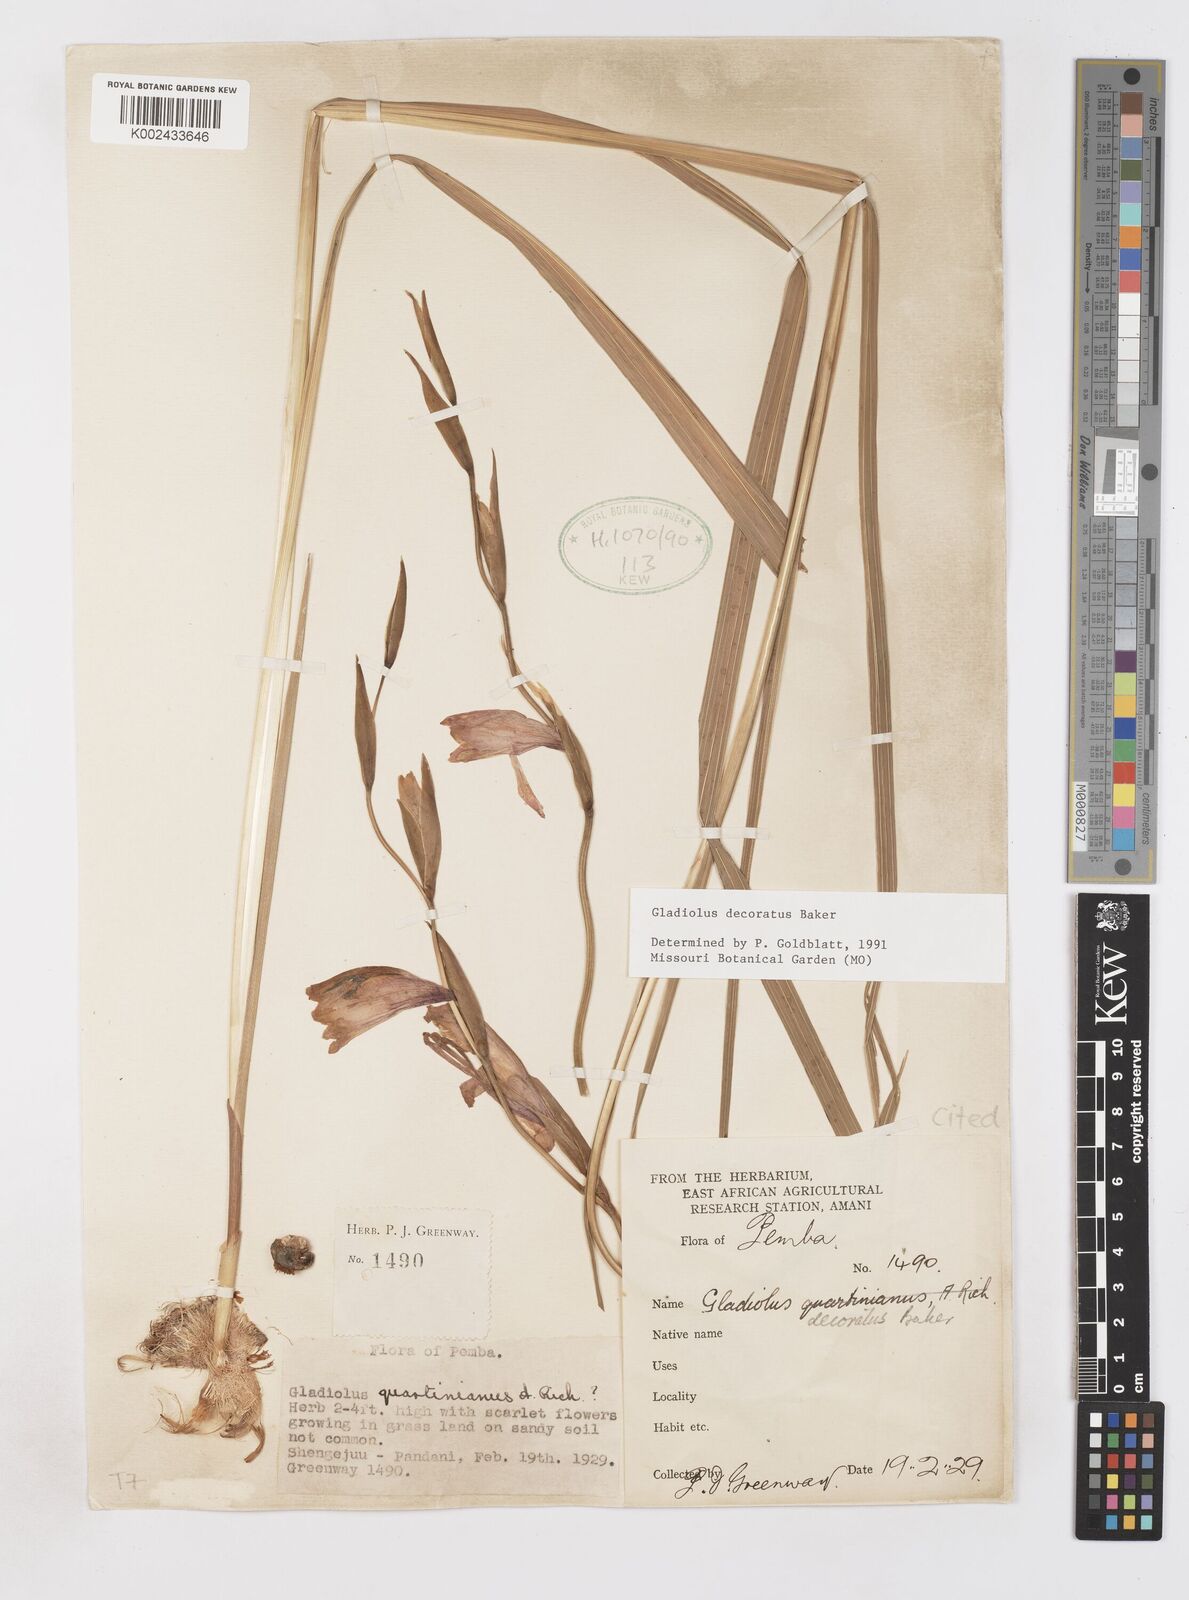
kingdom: Plantae
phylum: Tracheophyta
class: Liliopsida
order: Asparagales
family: Iridaceae
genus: Gladiolus
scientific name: Gladiolus decoratus
